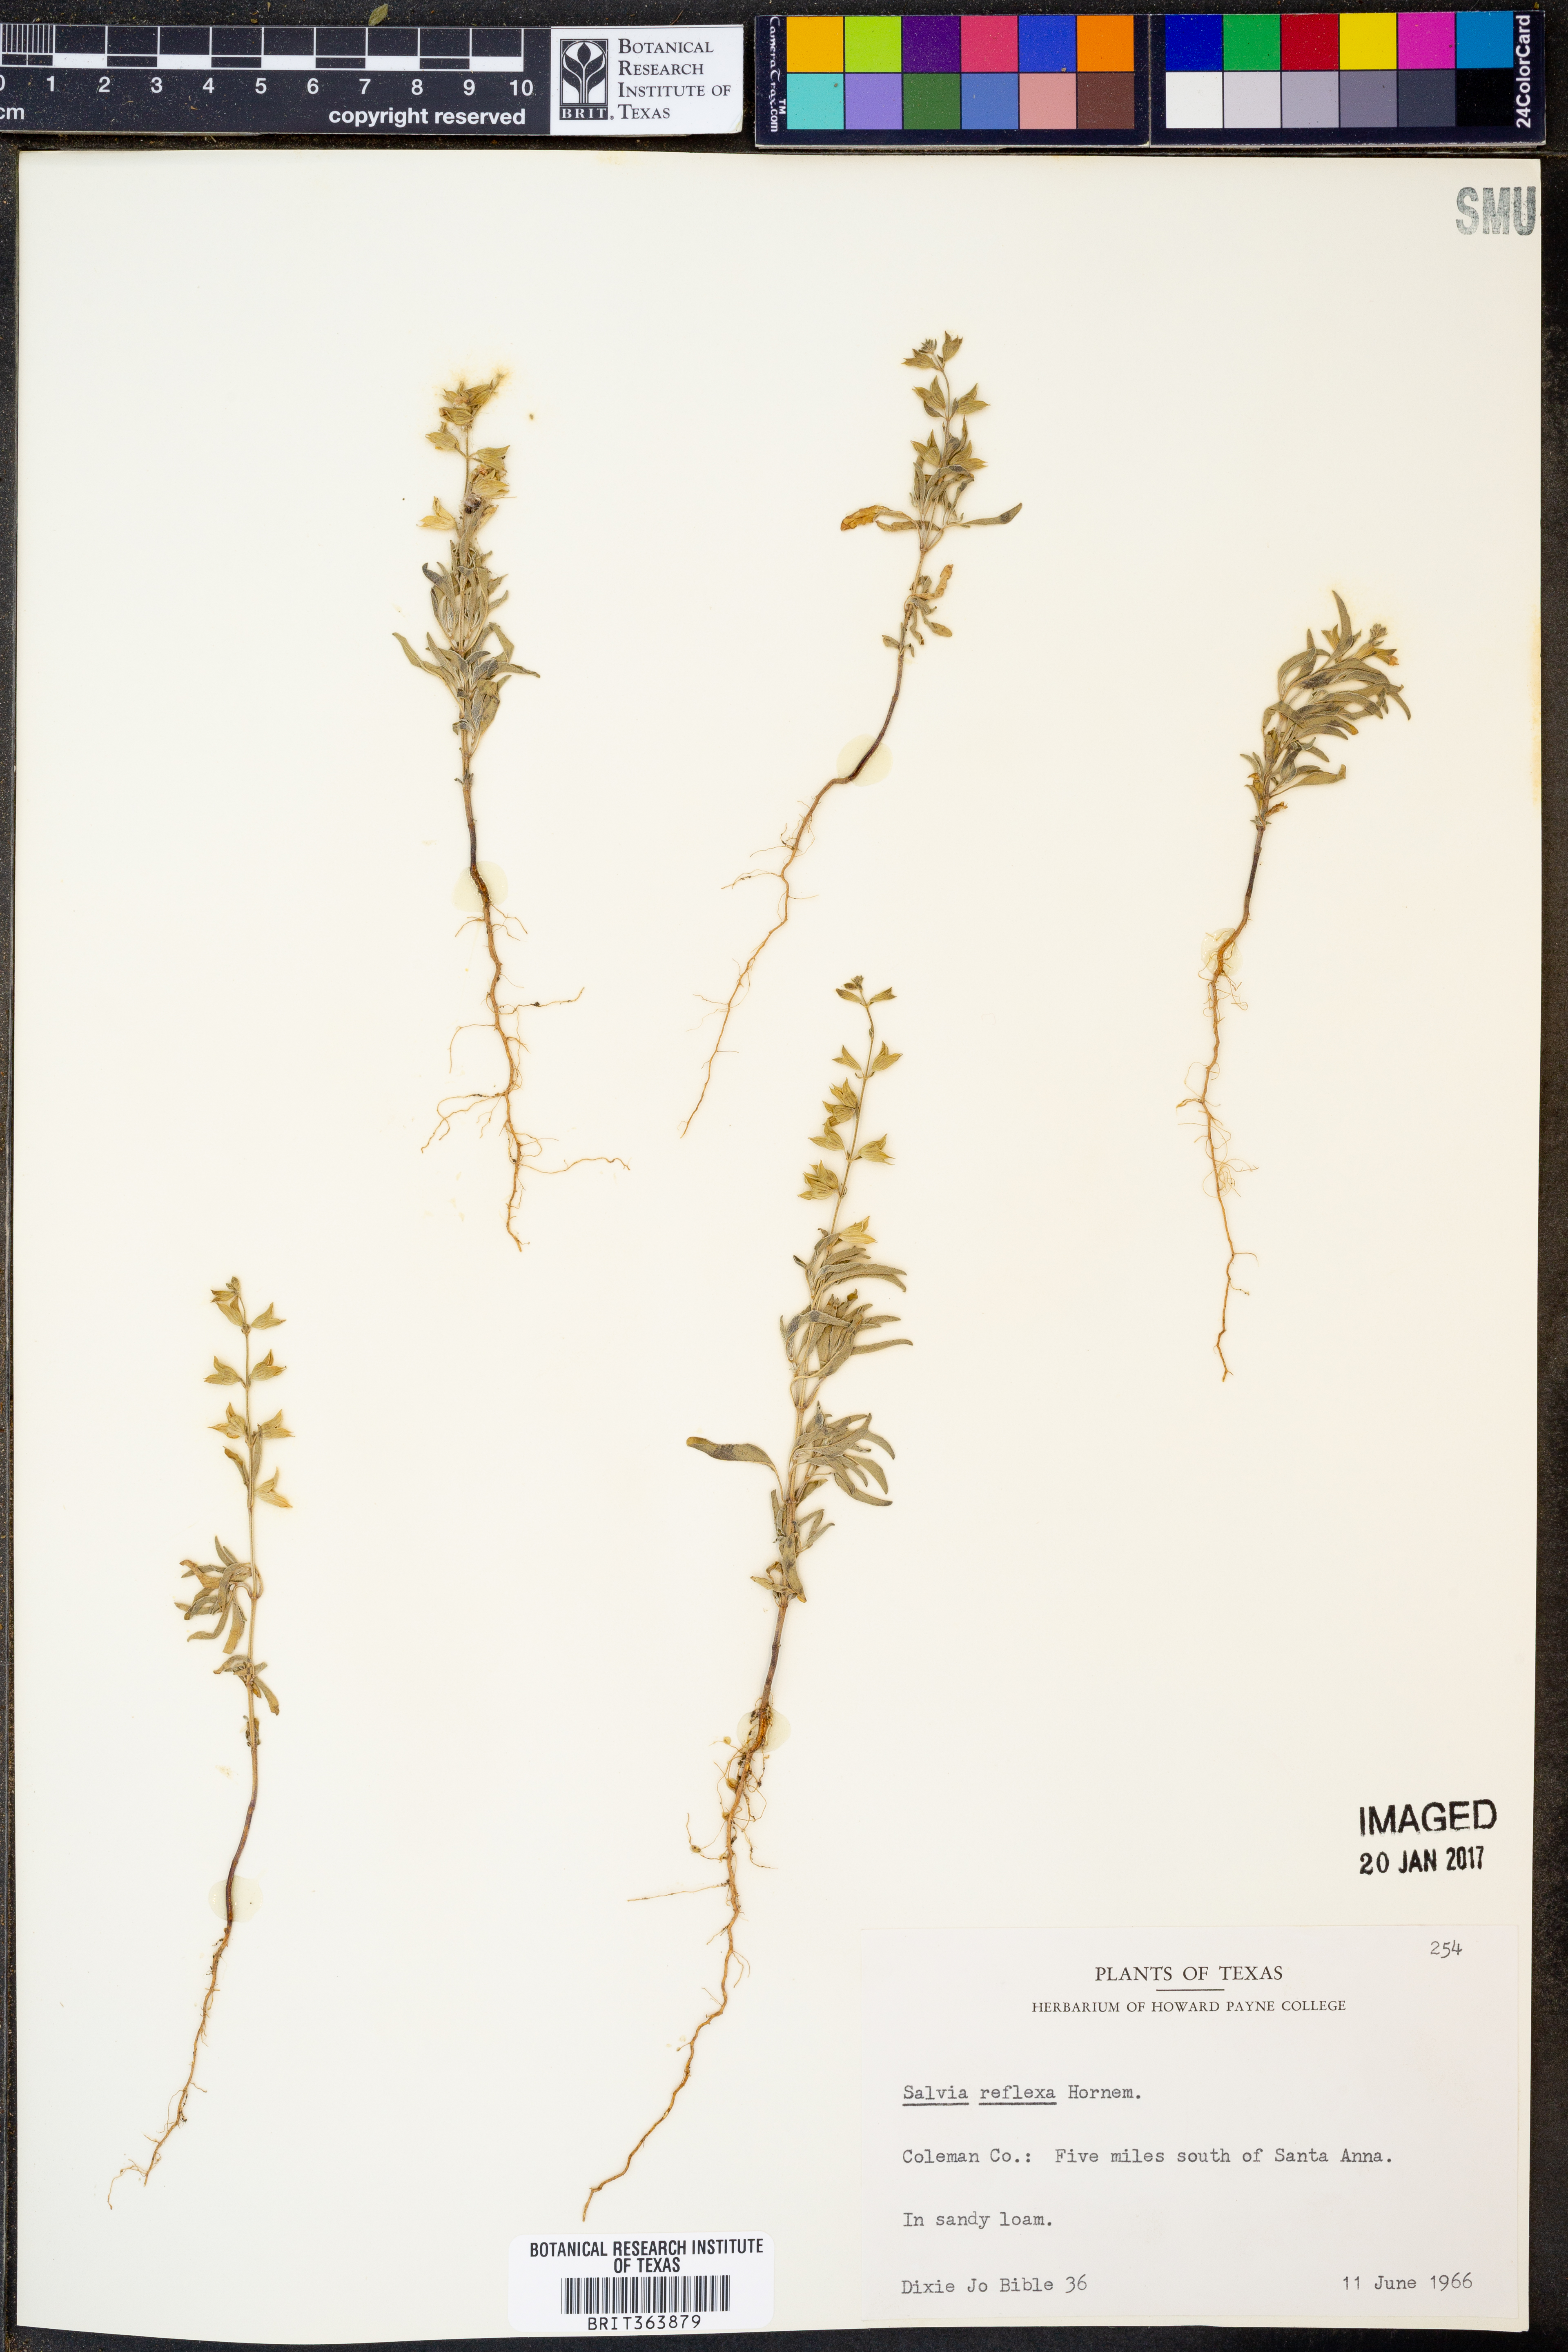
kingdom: Plantae
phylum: Tracheophyta
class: Magnoliopsida
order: Lamiales
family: Lamiaceae
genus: Salvia
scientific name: Salvia reflexa
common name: Mintweed
